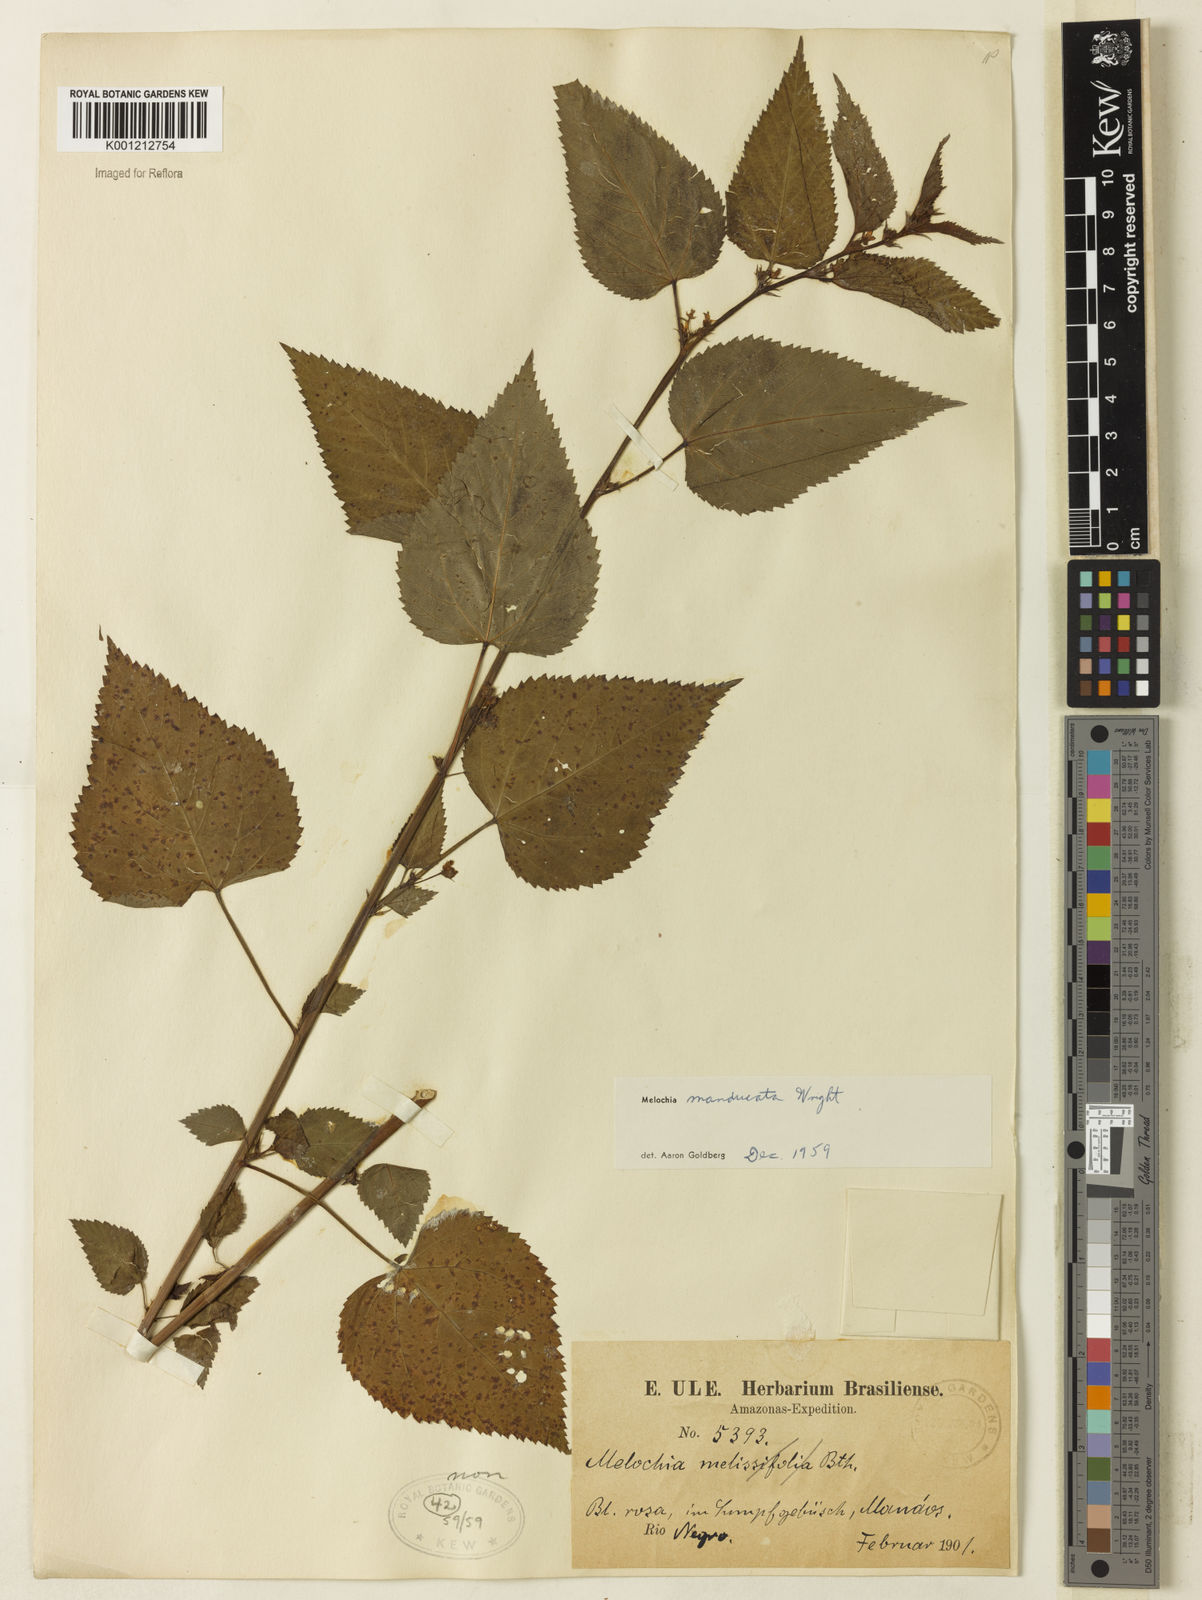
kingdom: Plantae
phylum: Tracheophyta
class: Magnoliopsida
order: Malvales
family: Malvaceae
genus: Melochia
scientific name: Melochia manducata
